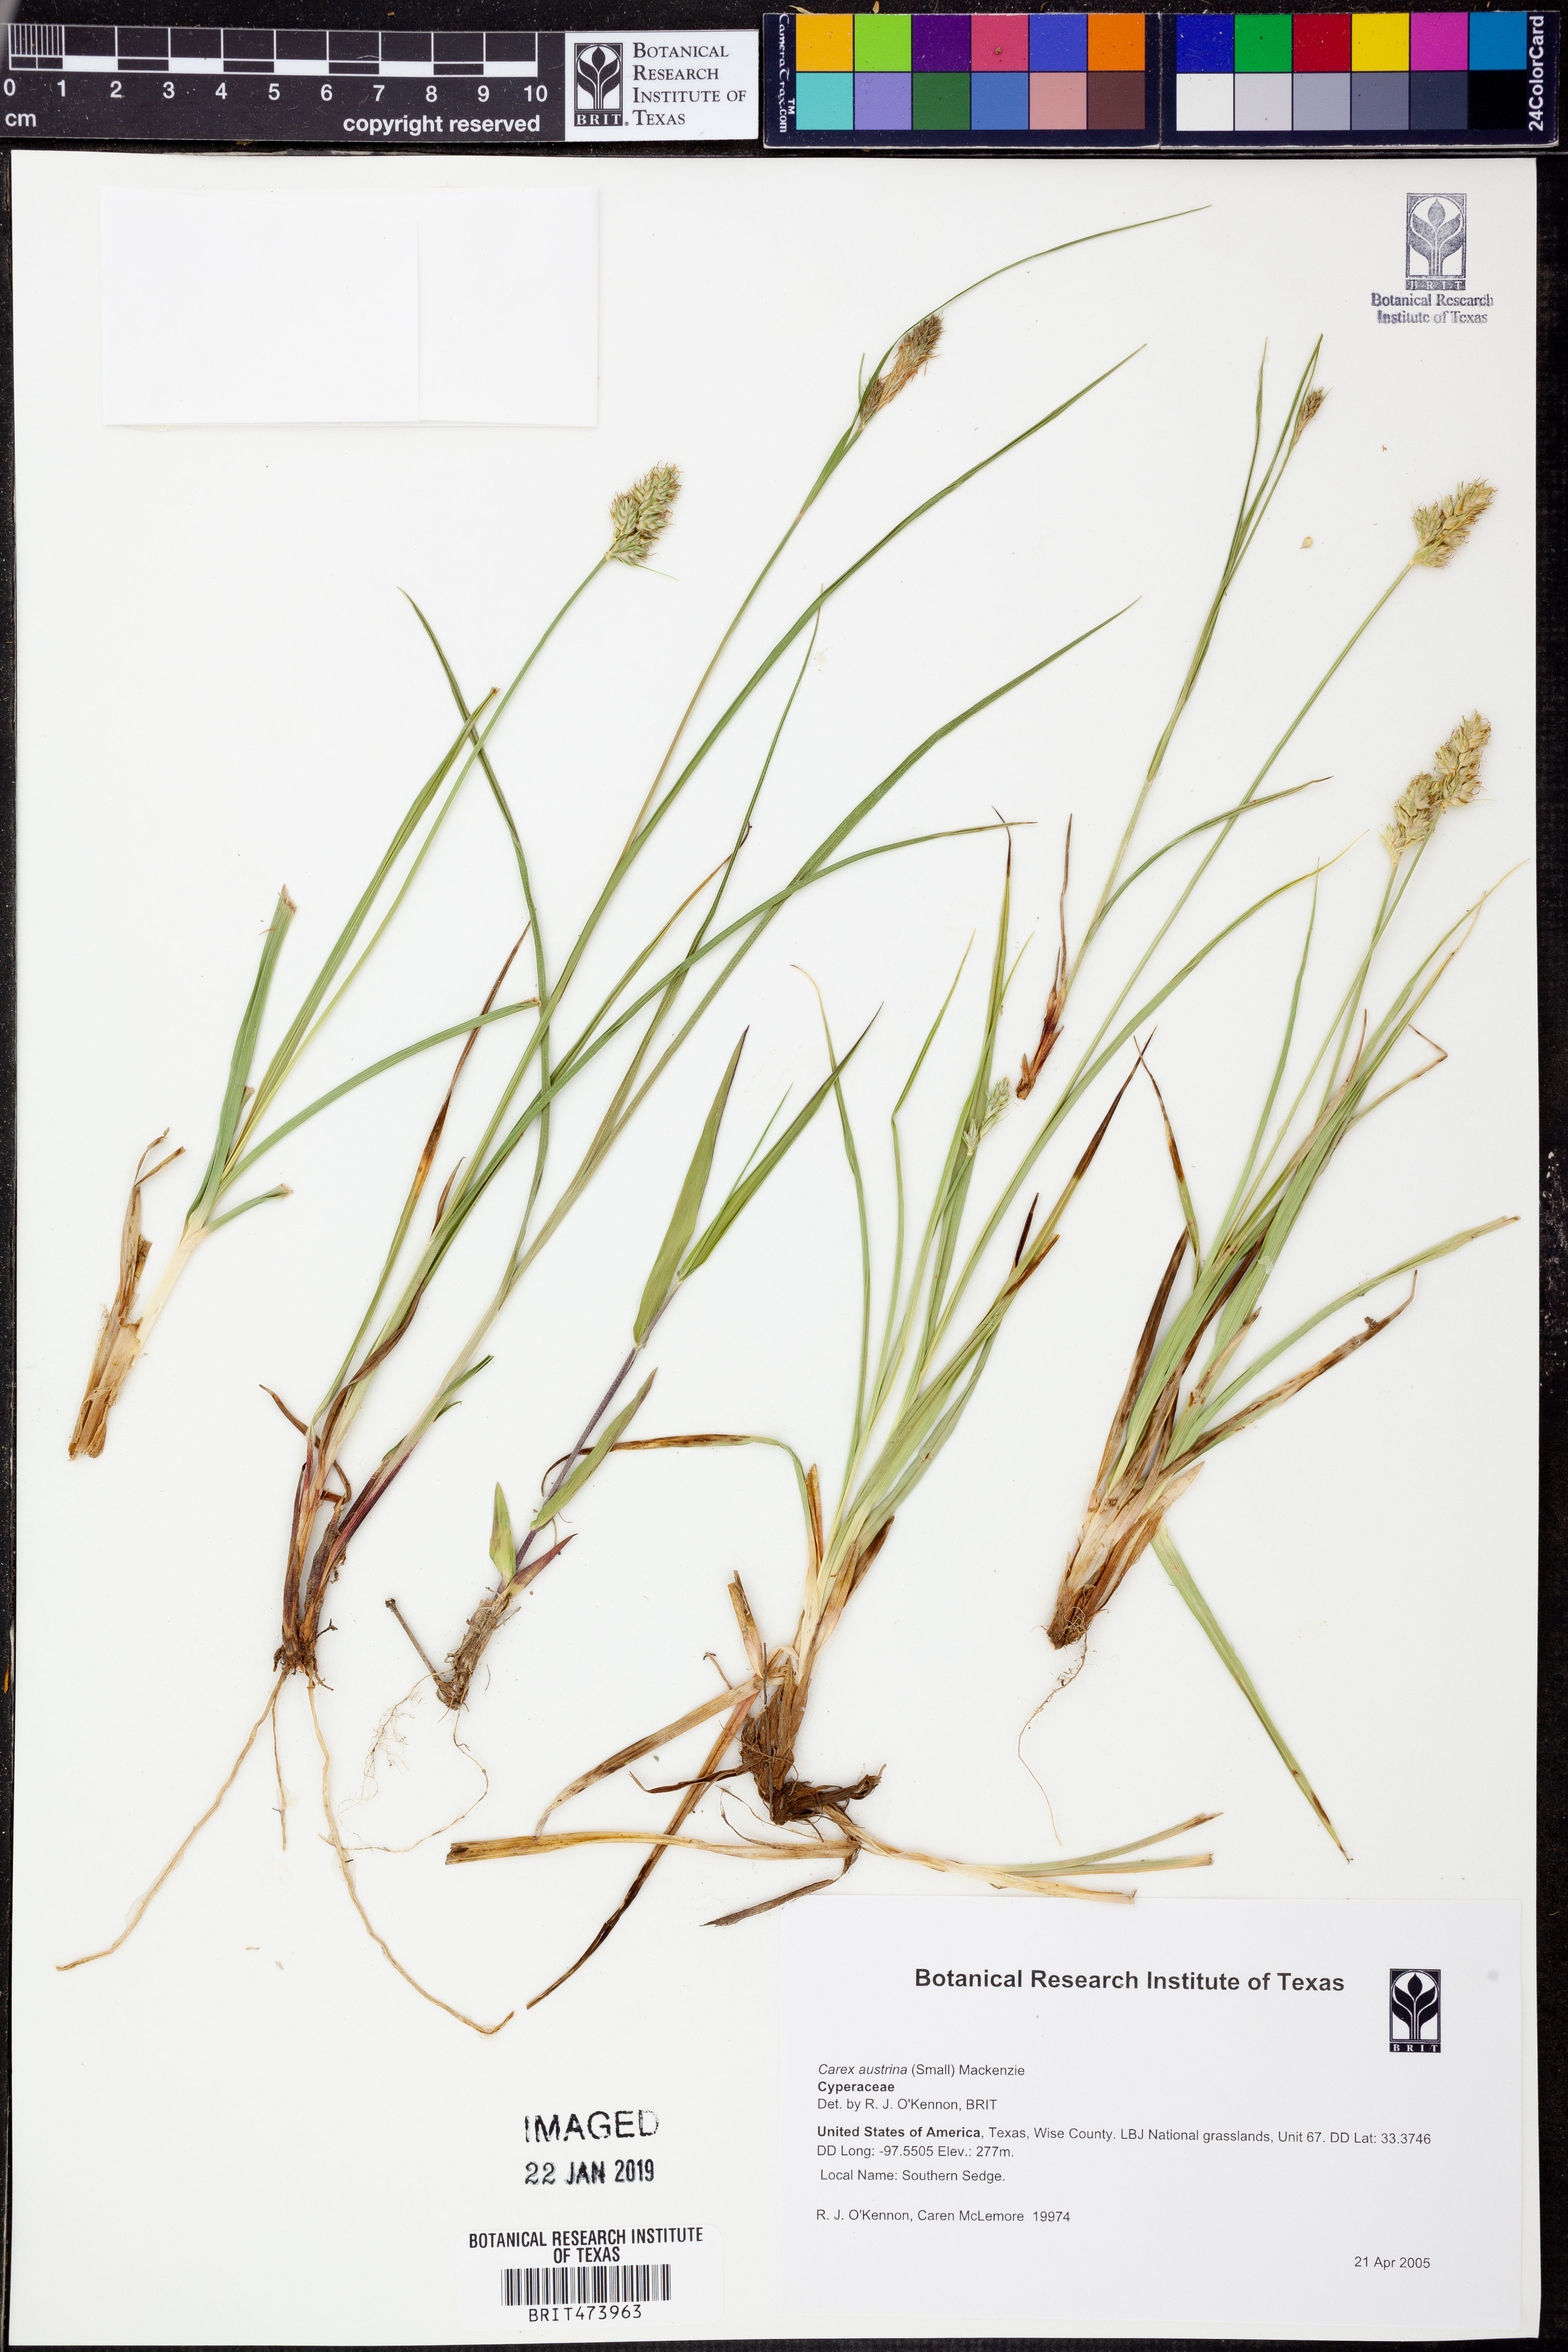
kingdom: Plantae
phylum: Tracheophyta
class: Liliopsida
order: Poales
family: Cyperaceae
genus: Carex
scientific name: Carex austrina
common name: Southern sedge
